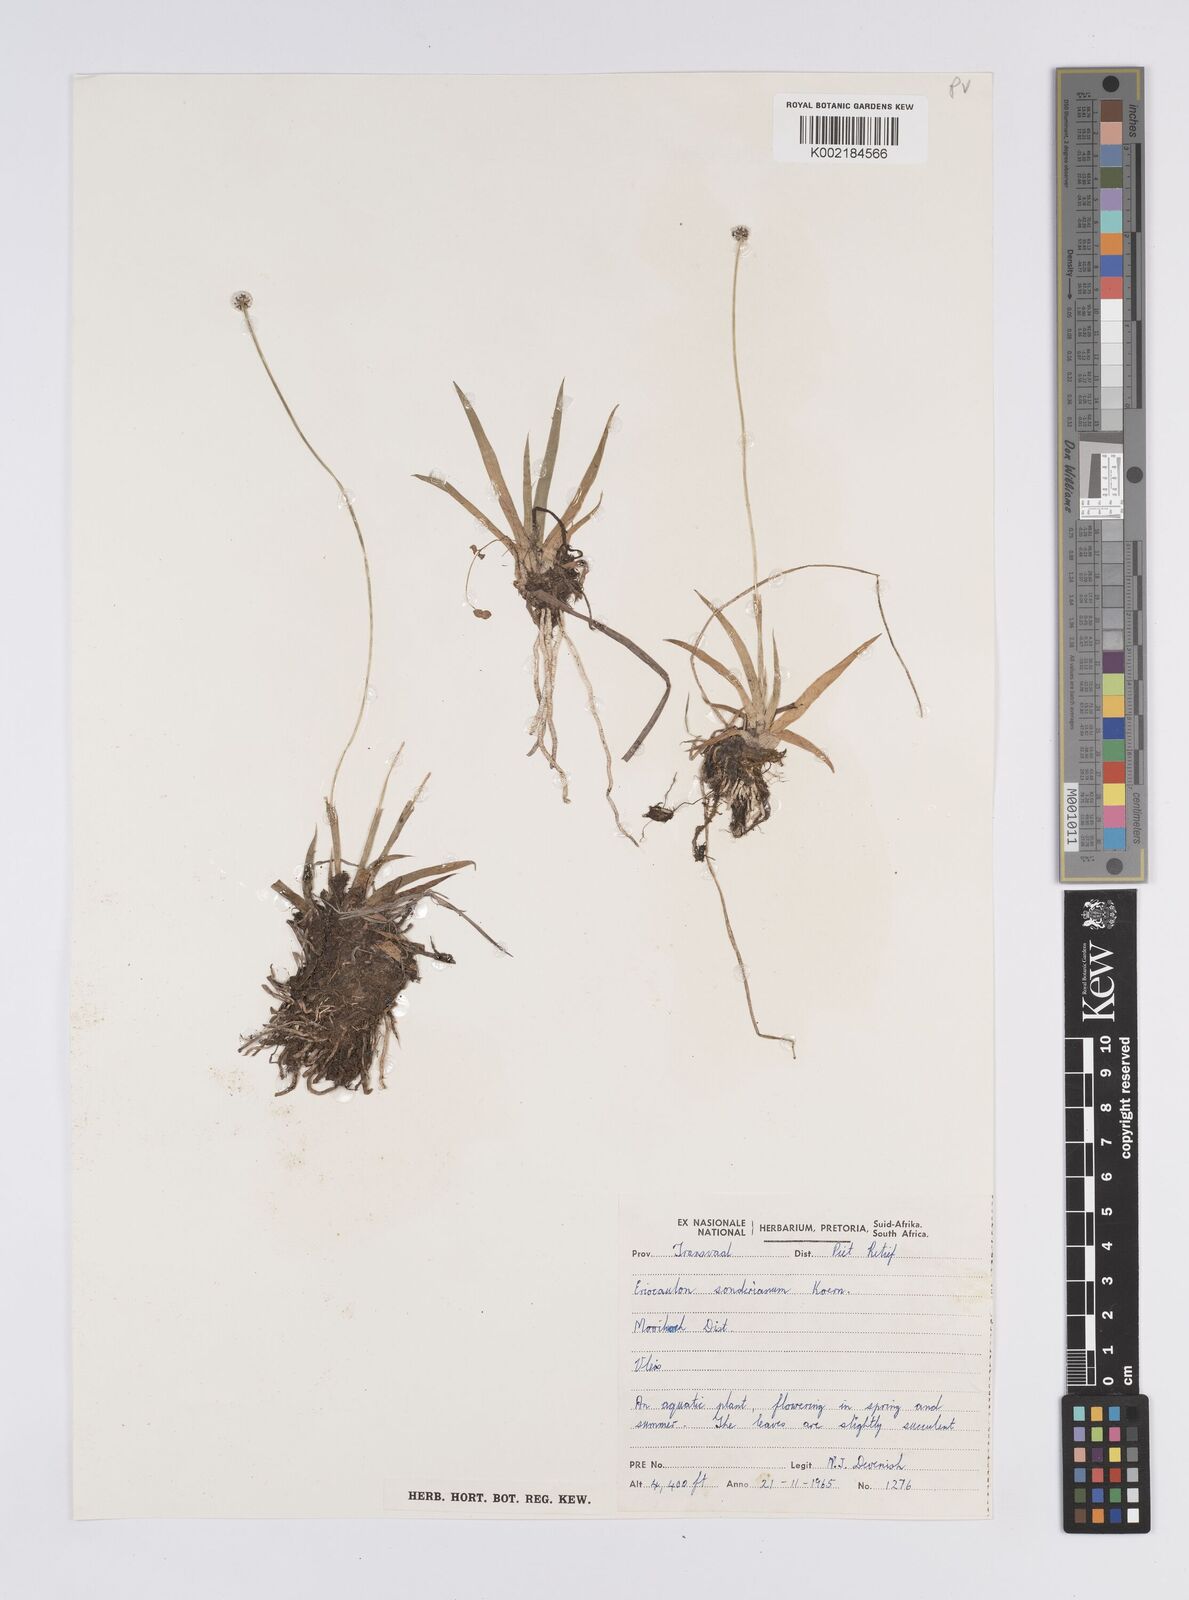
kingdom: Plantae
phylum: Tracheophyta
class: Liliopsida
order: Poales
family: Eriocaulaceae
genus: Eriocaulon
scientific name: Eriocaulon sonderianum
